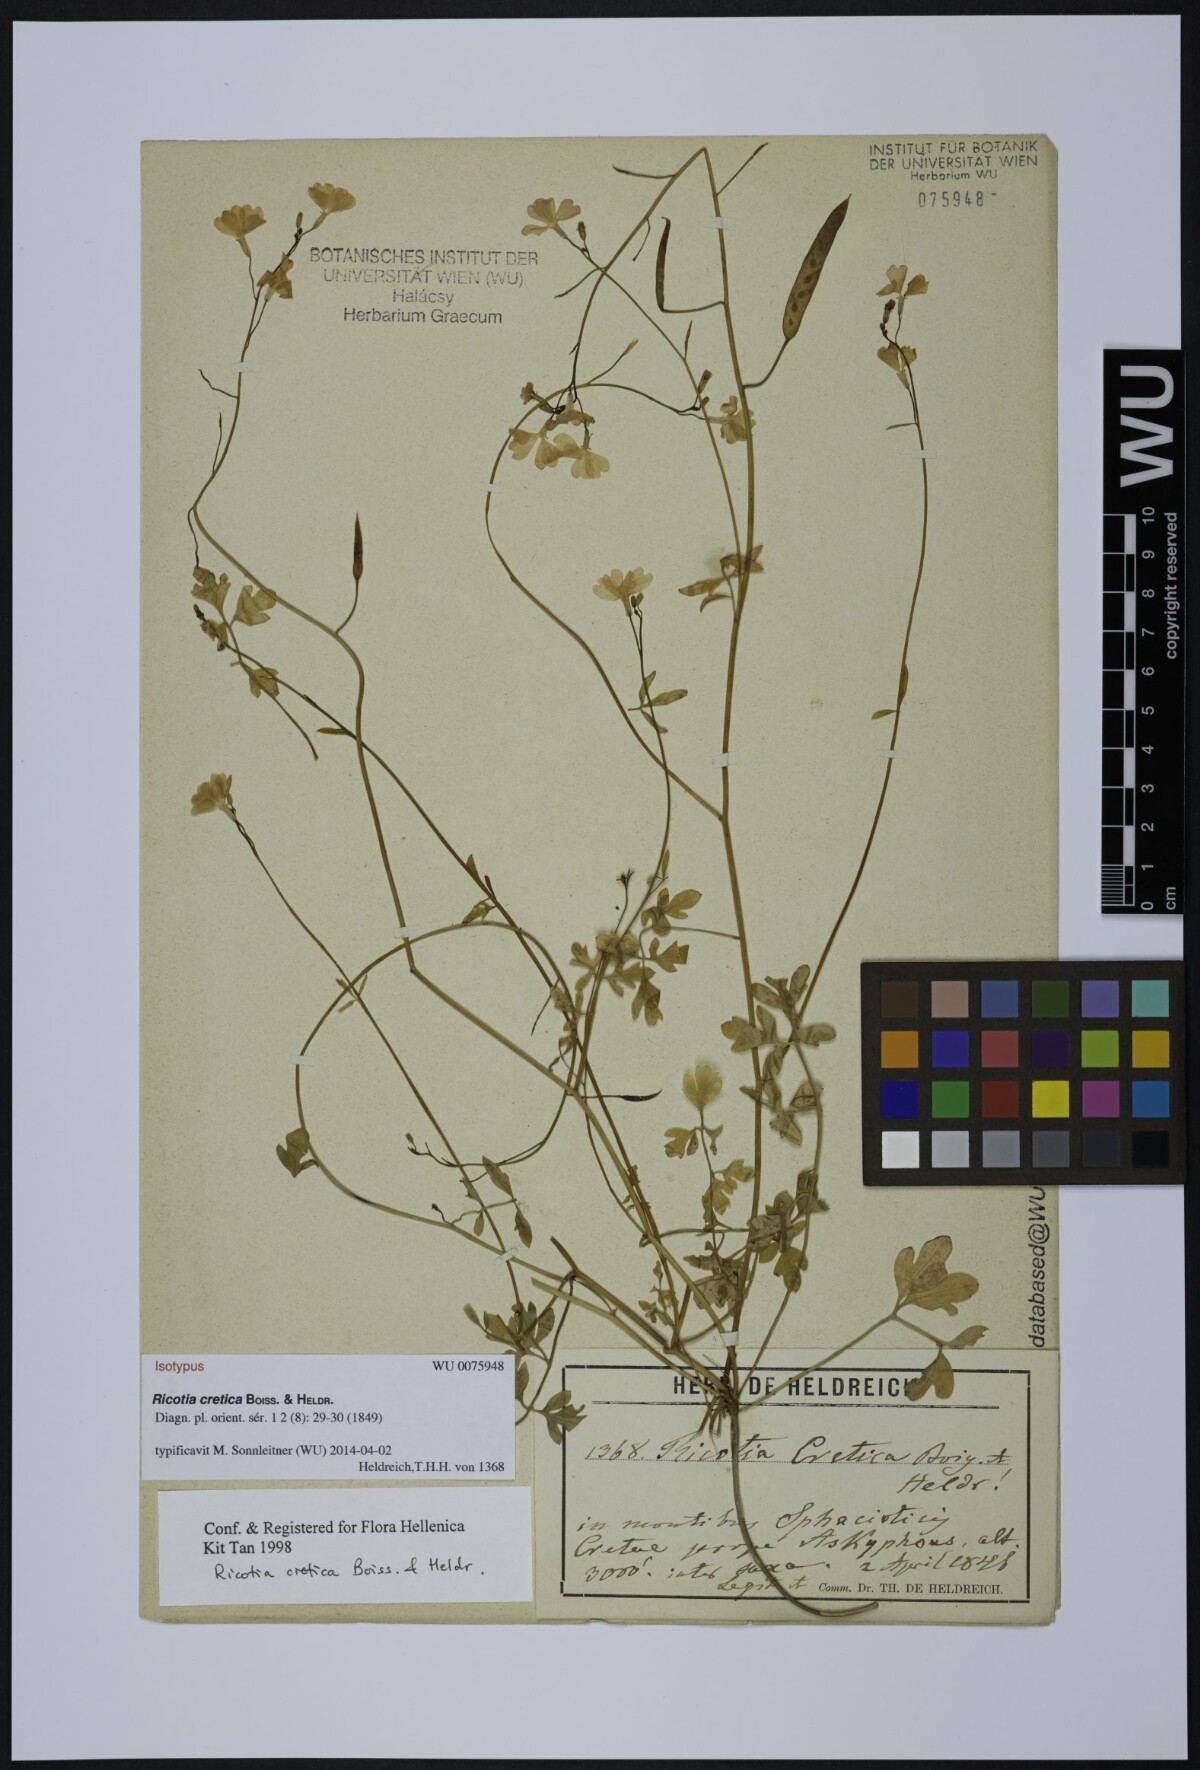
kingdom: Plantae
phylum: Tracheophyta
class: Magnoliopsida
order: Brassicales
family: Brassicaceae
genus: Ricotia
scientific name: Ricotia cretica
